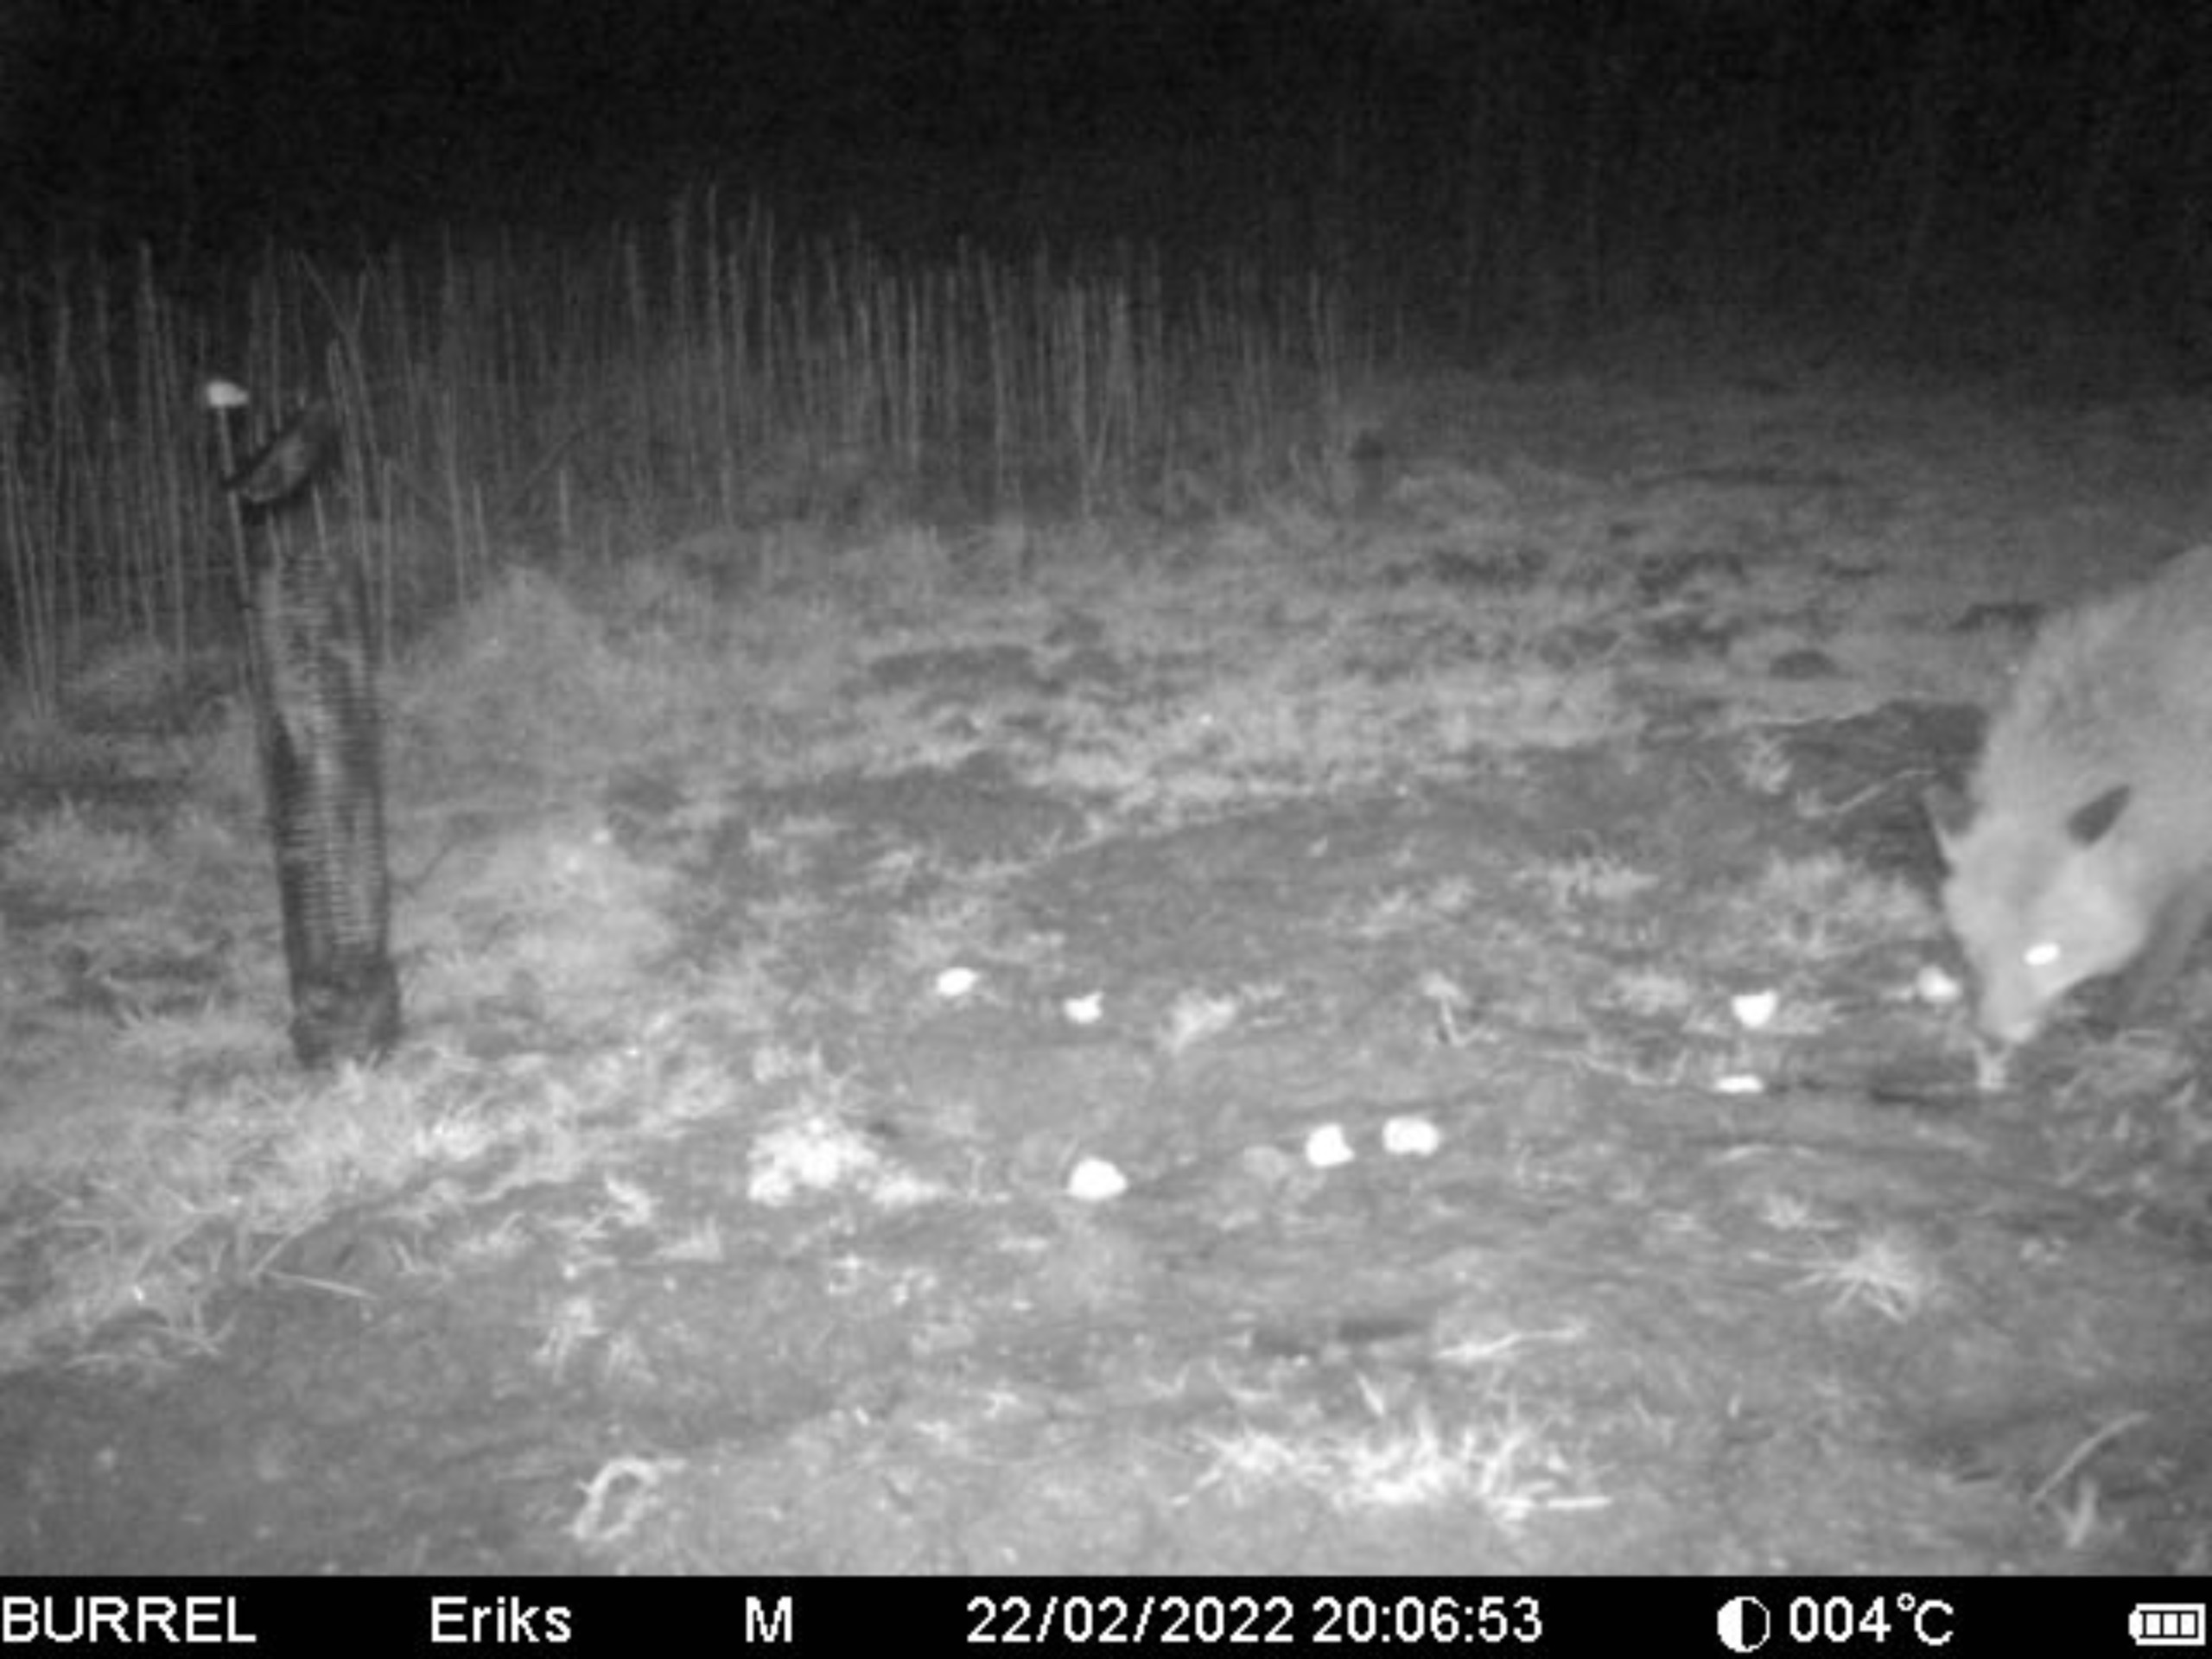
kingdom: Animalia
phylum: Chordata
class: Mammalia
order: Carnivora
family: Canidae
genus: Vulpes
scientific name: Vulpes vulpes
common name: Ræv
